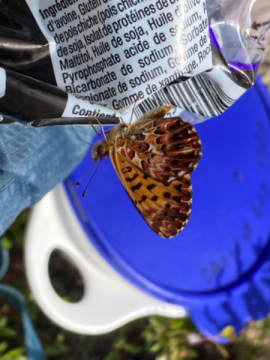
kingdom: Animalia
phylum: Arthropoda
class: Insecta
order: Lepidoptera
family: Nymphalidae
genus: Boloria
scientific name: Boloria chariclea
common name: Arctic Fritillary
